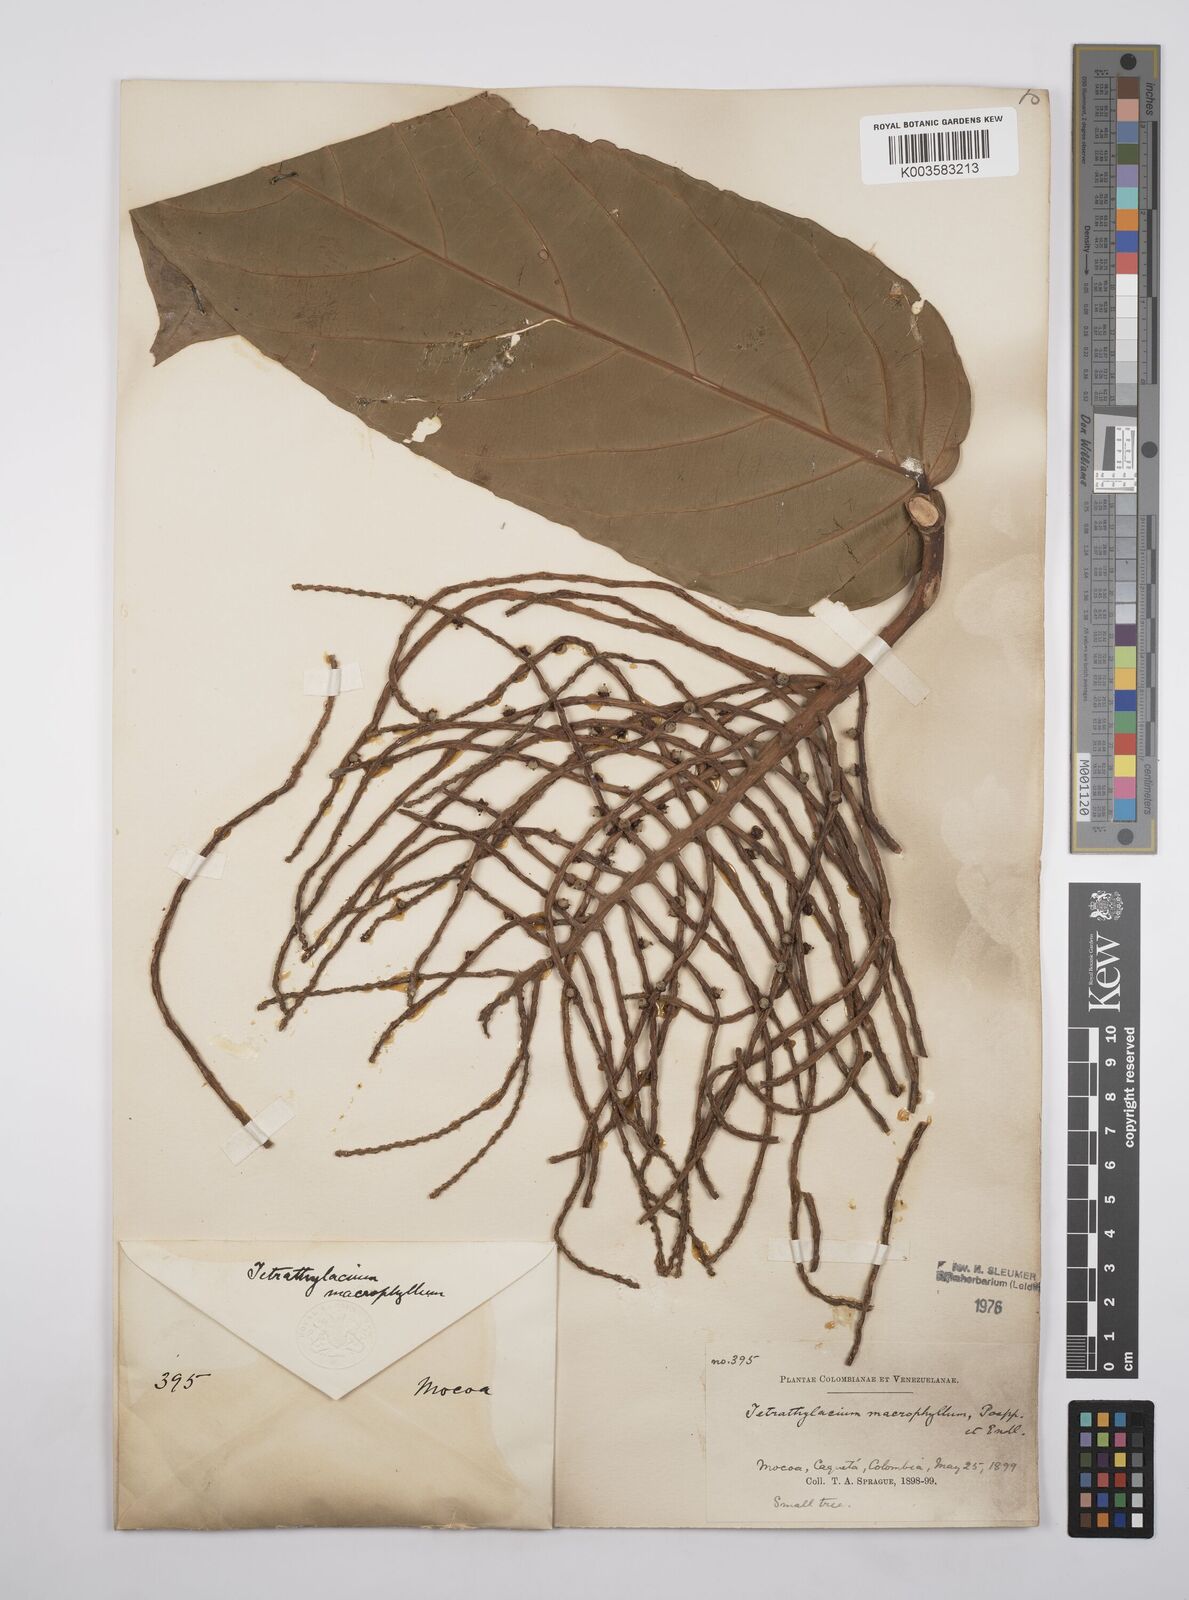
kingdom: Plantae
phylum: Tracheophyta
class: Magnoliopsida
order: Malpighiales
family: Salicaceae
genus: Tetrathylacium
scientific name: Tetrathylacium macrophyllum
